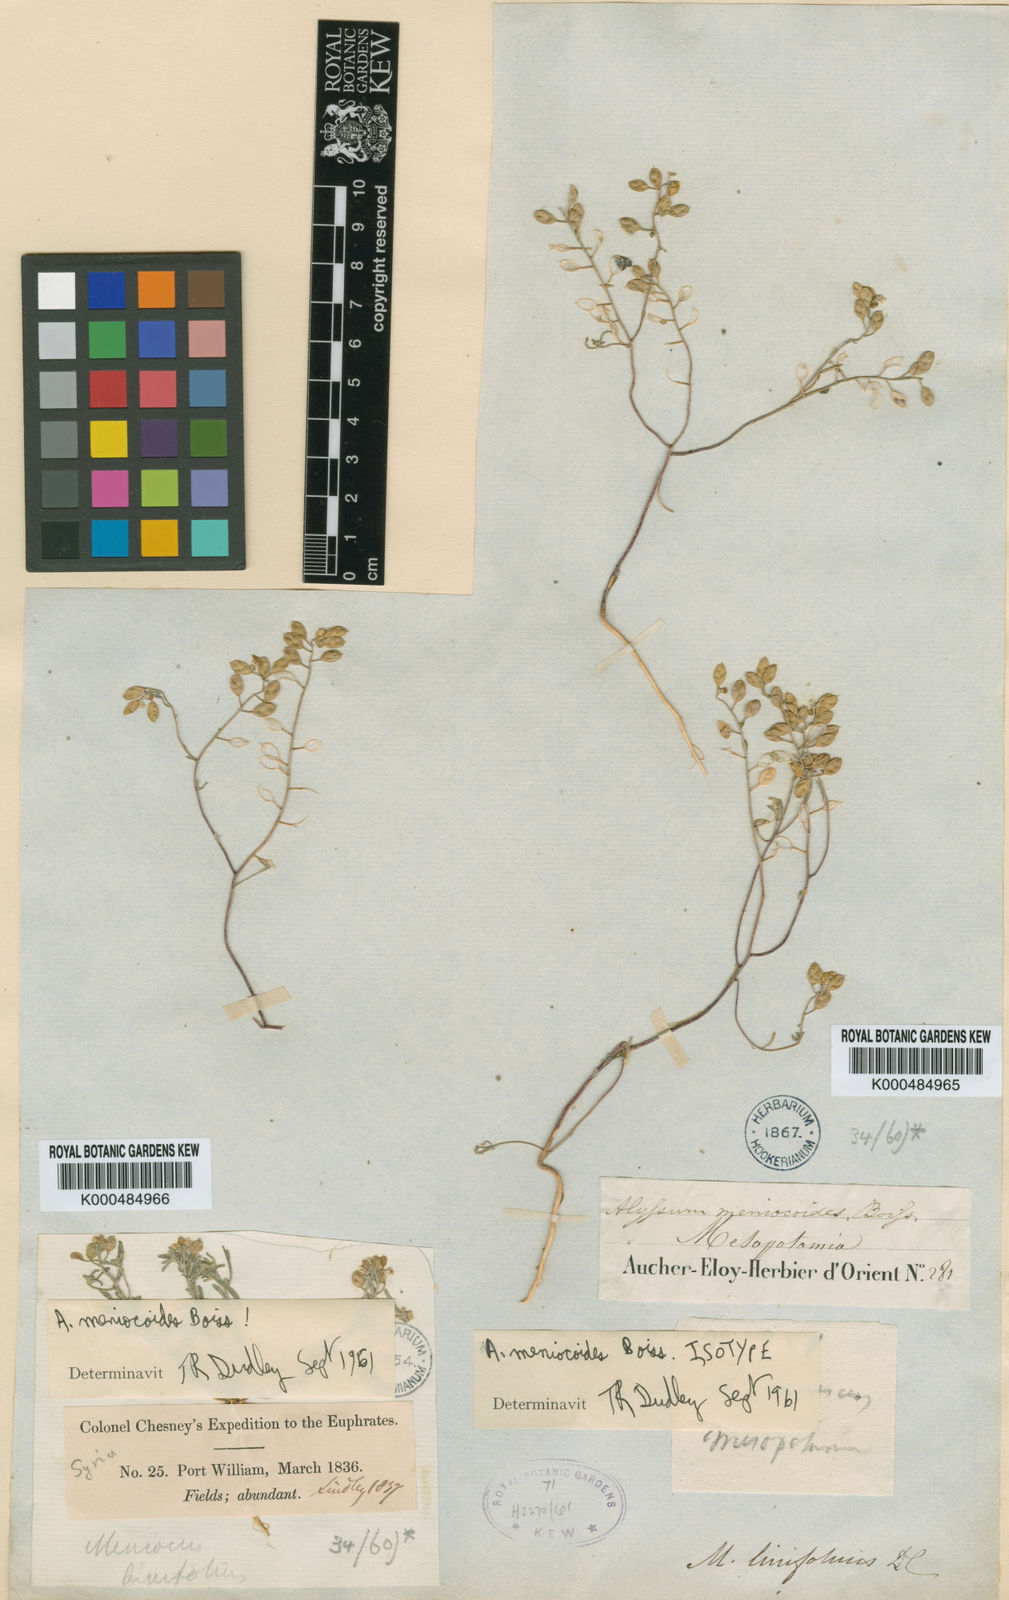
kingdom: Plantae
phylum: Tracheophyta
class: Magnoliopsida
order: Brassicales
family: Brassicaceae
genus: Meniocus
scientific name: Meniocus
